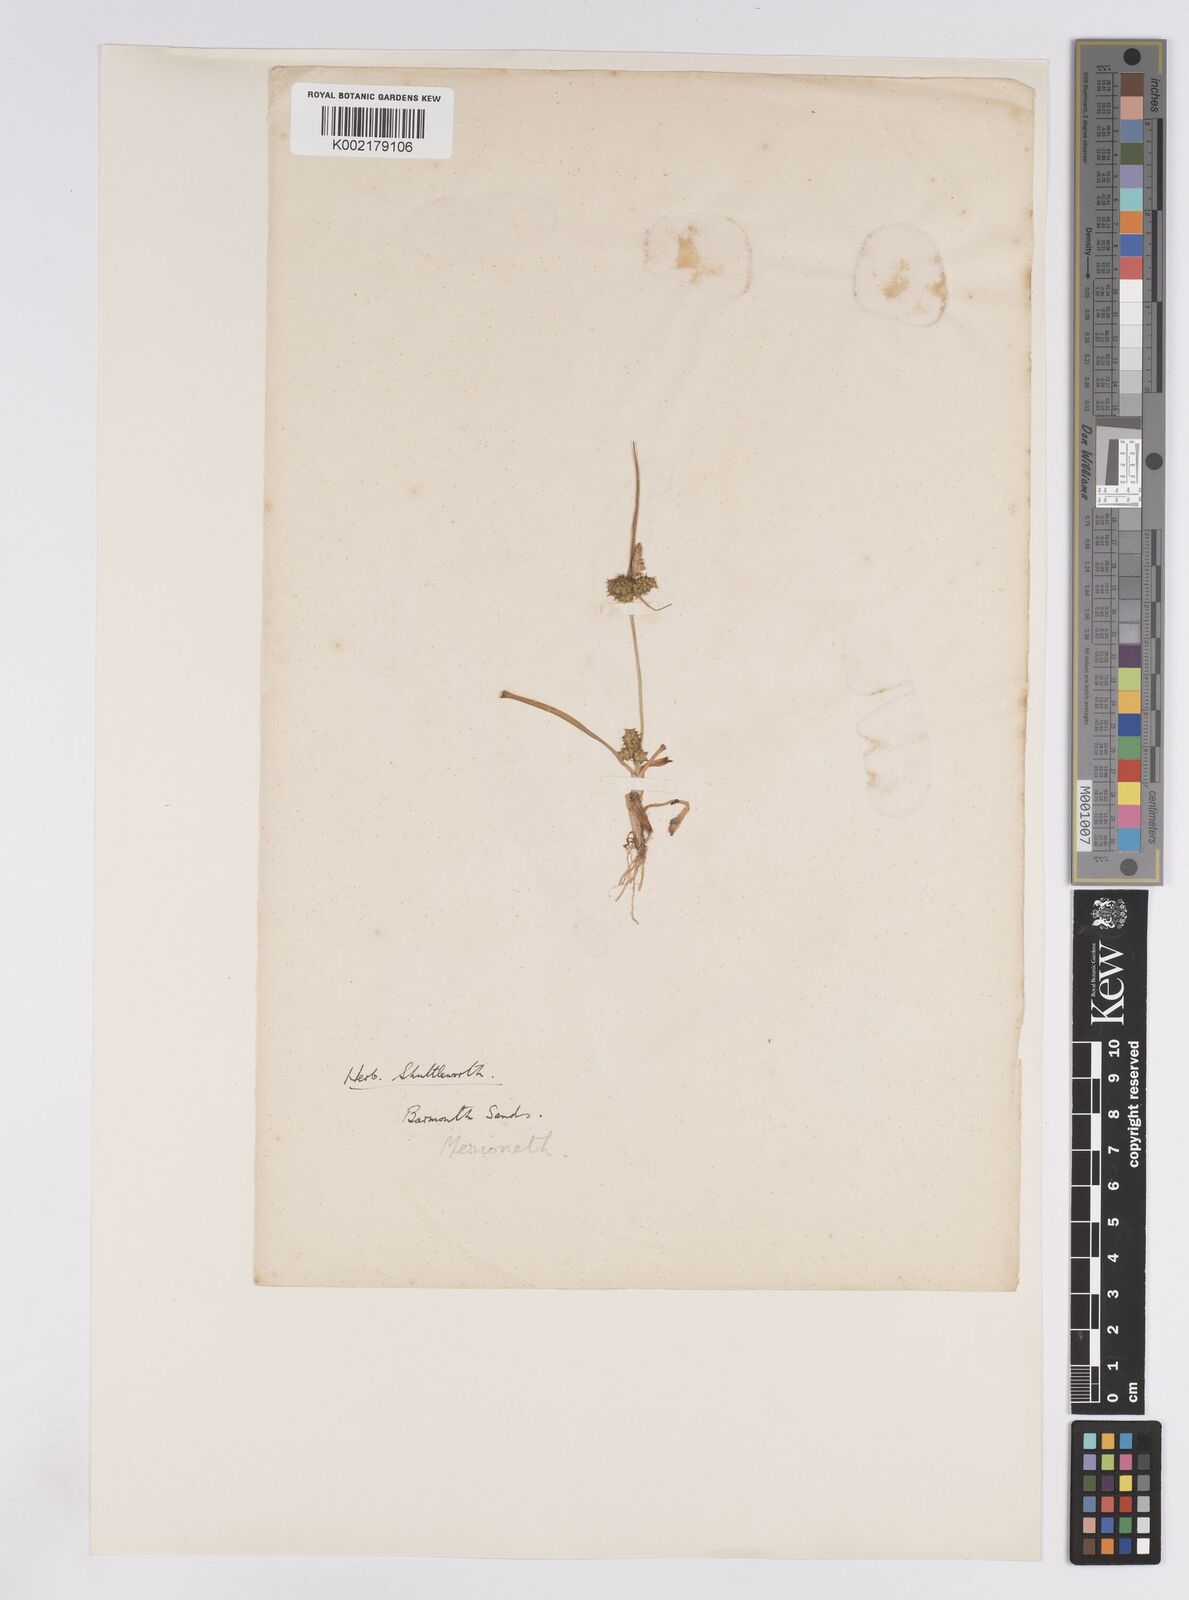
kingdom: Plantae
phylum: Tracheophyta
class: Liliopsida
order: Poales
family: Cyperaceae
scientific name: Cyperaceae
